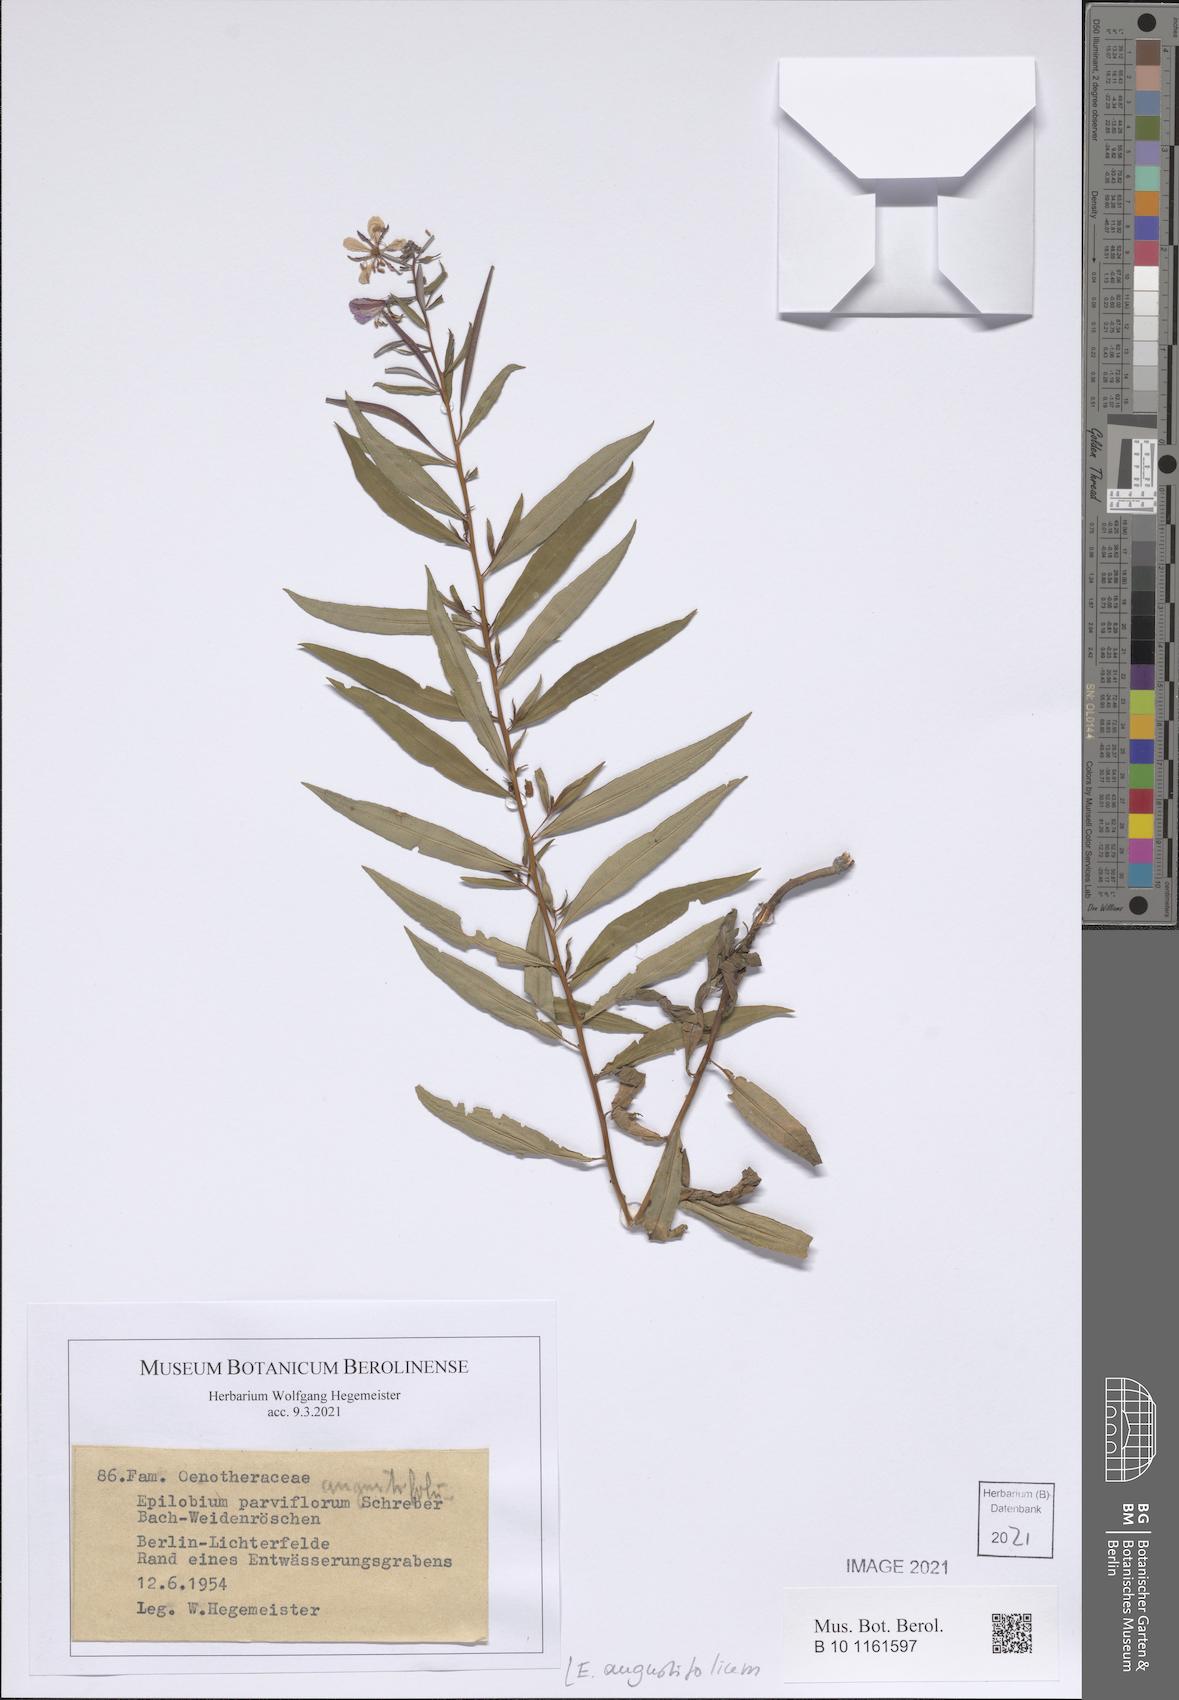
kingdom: Plantae
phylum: Tracheophyta
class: Magnoliopsida
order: Myrtales
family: Onagraceae
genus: Chamaenerion
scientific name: Chamaenerion angustifolium
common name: Fireweed
